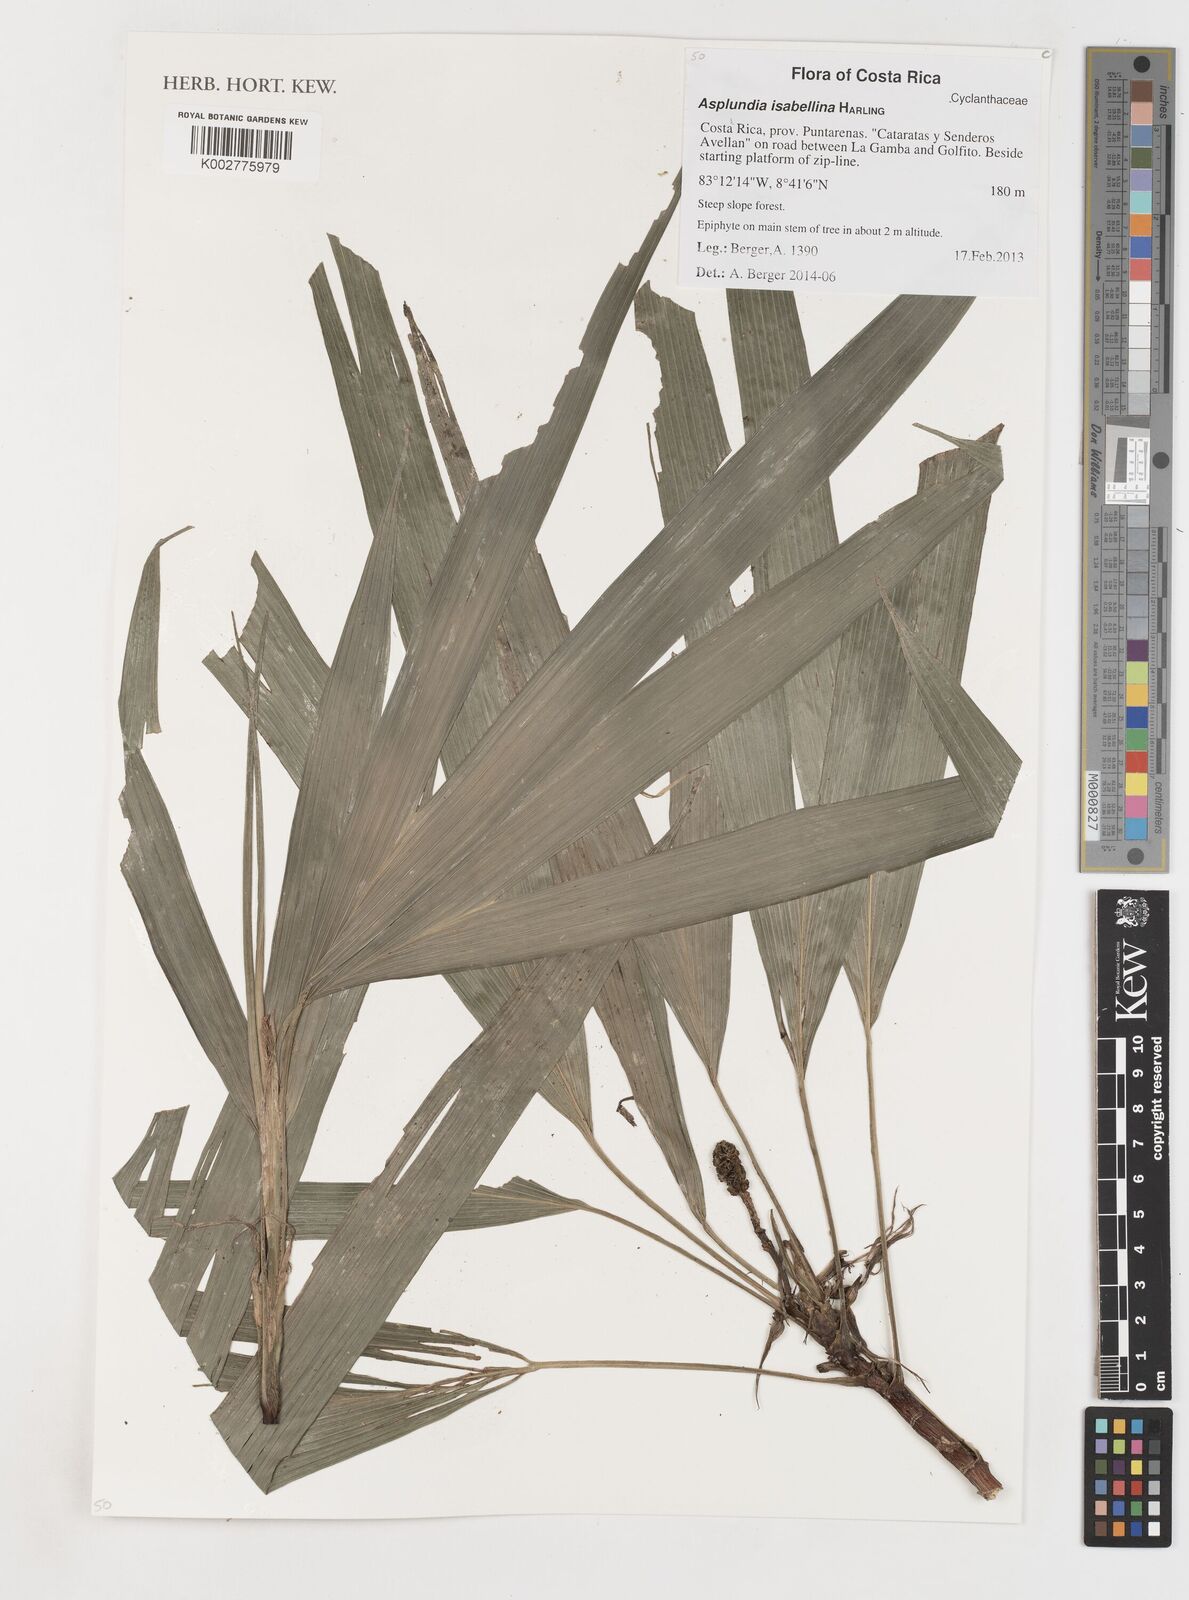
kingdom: Plantae
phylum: Tracheophyta
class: Liliopsida
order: Pandanales
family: Cyclanthaceae
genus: Asplundia
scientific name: Asplundia isabellina
